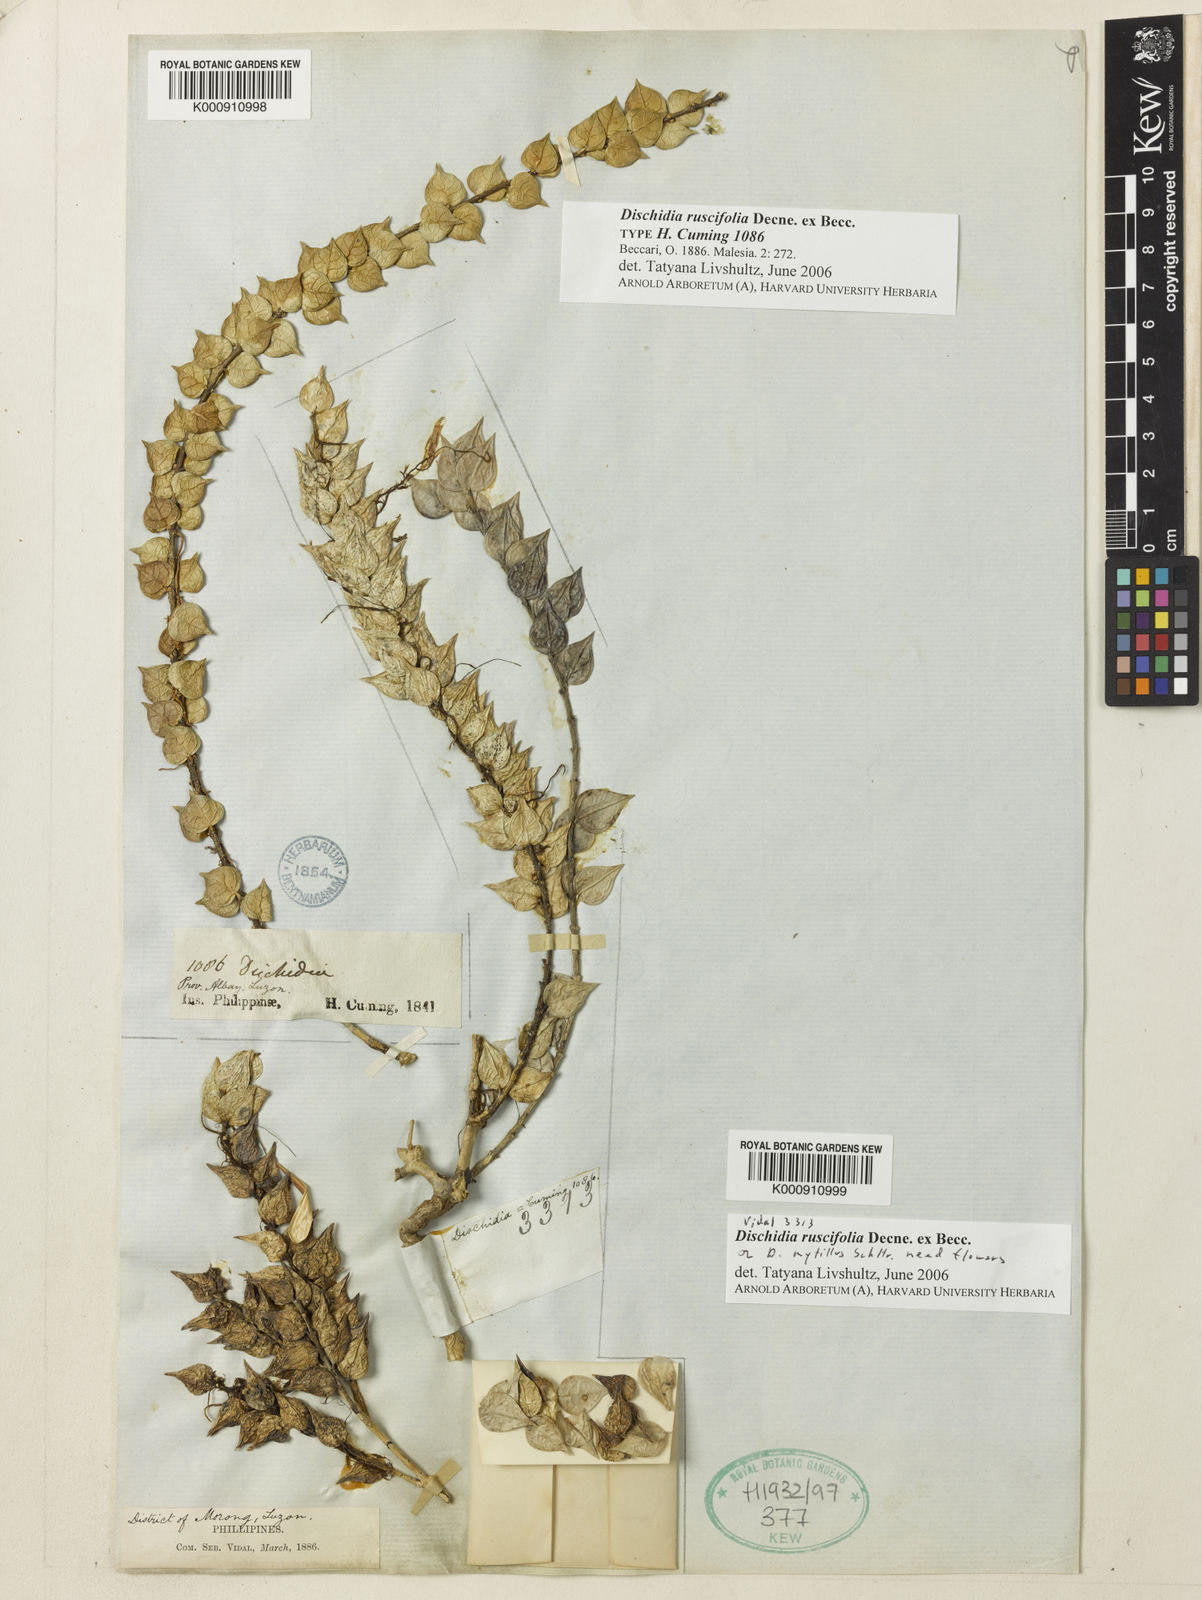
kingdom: Plantae
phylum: Tracheophyta
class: Magnoliopsida
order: Gentianales
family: Apocynaceae
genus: Dischidia
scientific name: Dischidia ruscifolia
